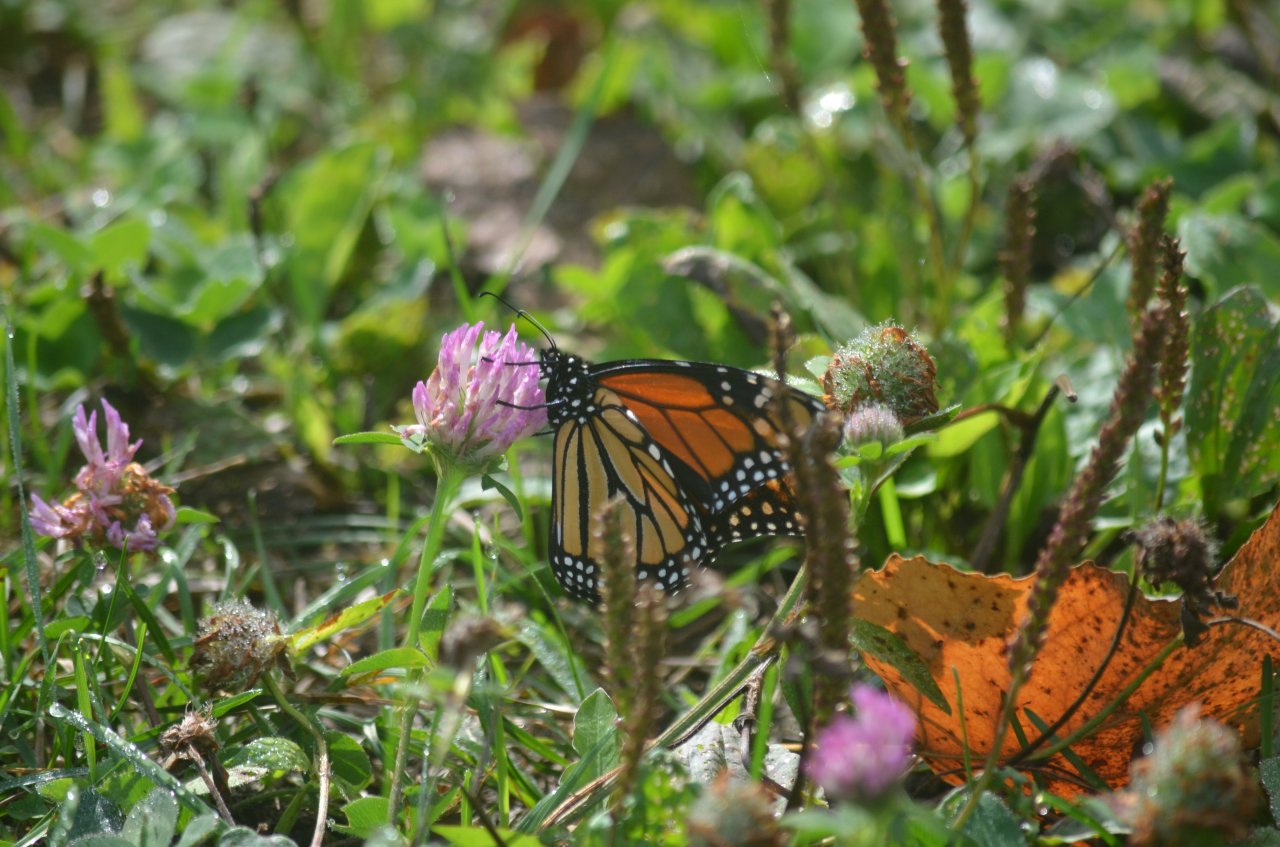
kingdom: Animalia
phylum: Arthropoda
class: Insecta
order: Lepidoptera
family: Nymphalidae
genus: Danaus
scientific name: Danaus plexippus
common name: Monarch
